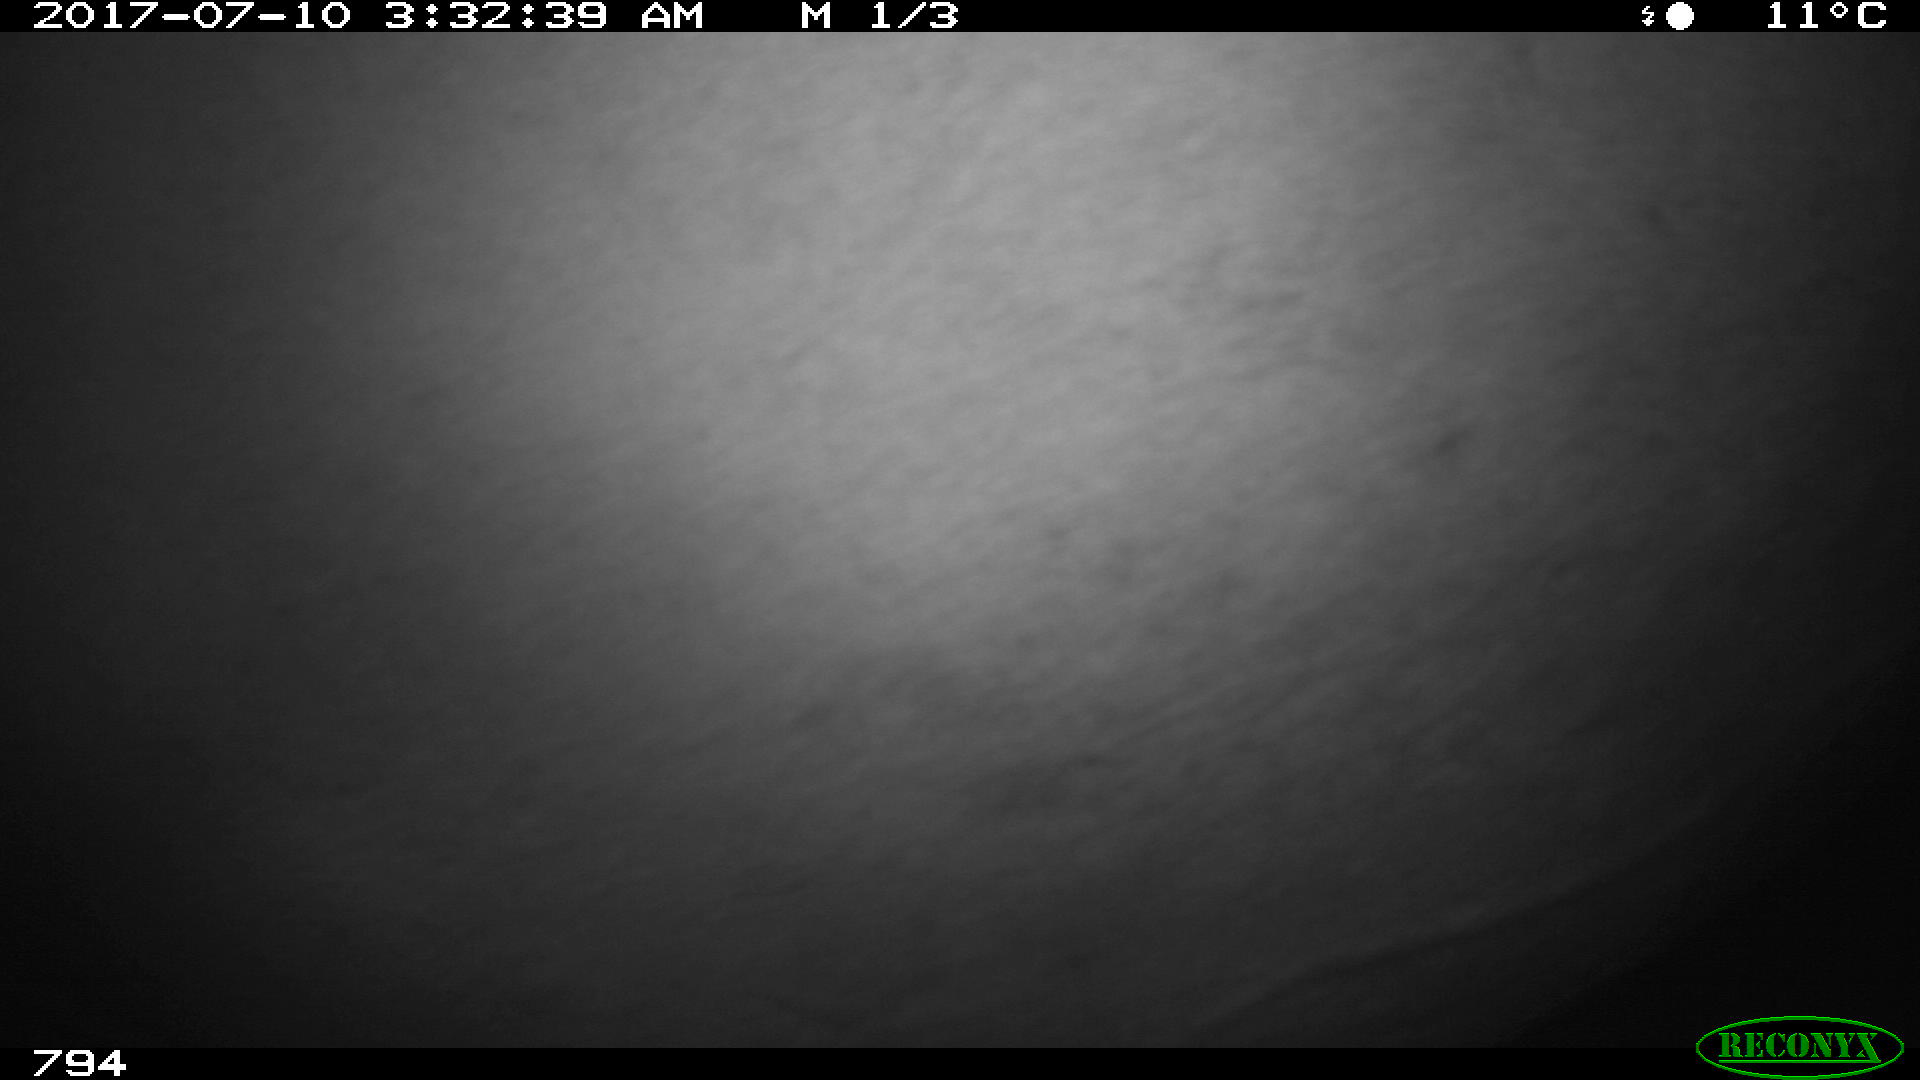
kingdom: Animalia
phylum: Chordata
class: Mammalia
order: Perissodactyla
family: Equidae
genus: Equus
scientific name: Equus caballus
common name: Horse
